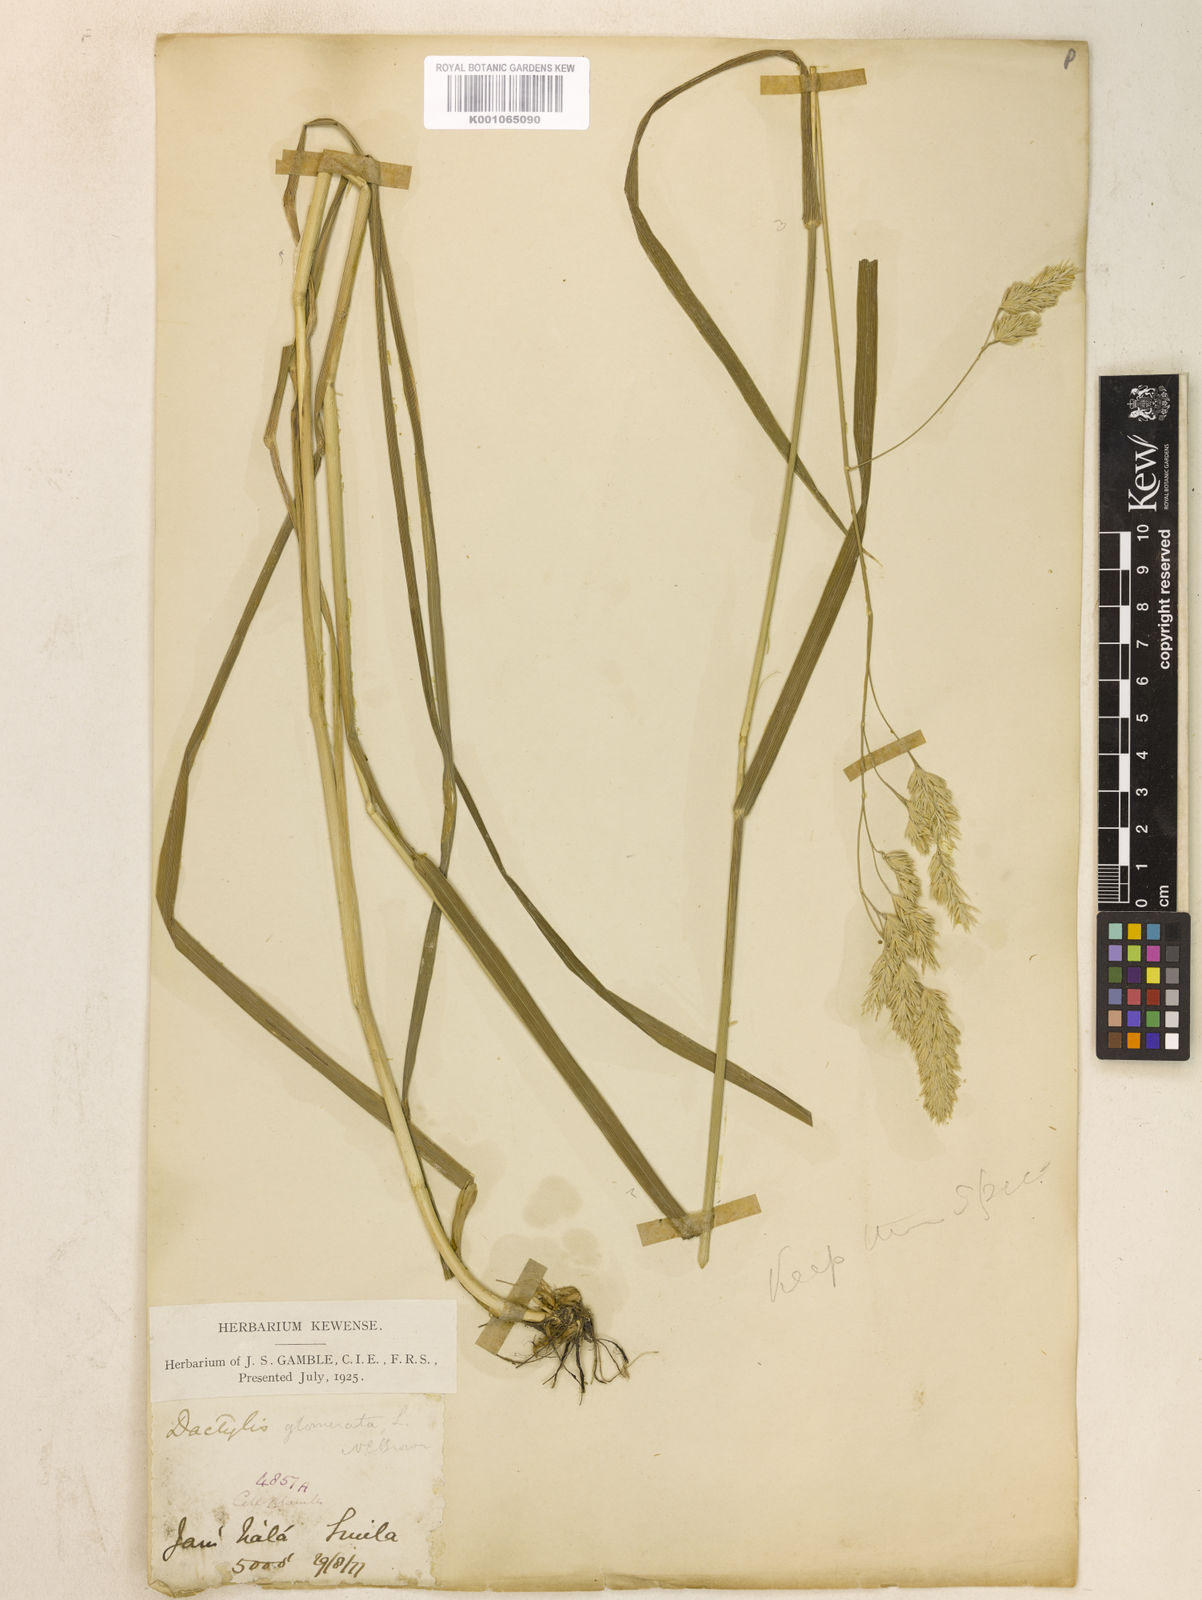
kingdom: Plantae
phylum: Tracheophyta
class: Liliopsida
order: Poales
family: Poaceae
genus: Dactylis
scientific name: Dactylis glomerata
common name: Orchardgrass
